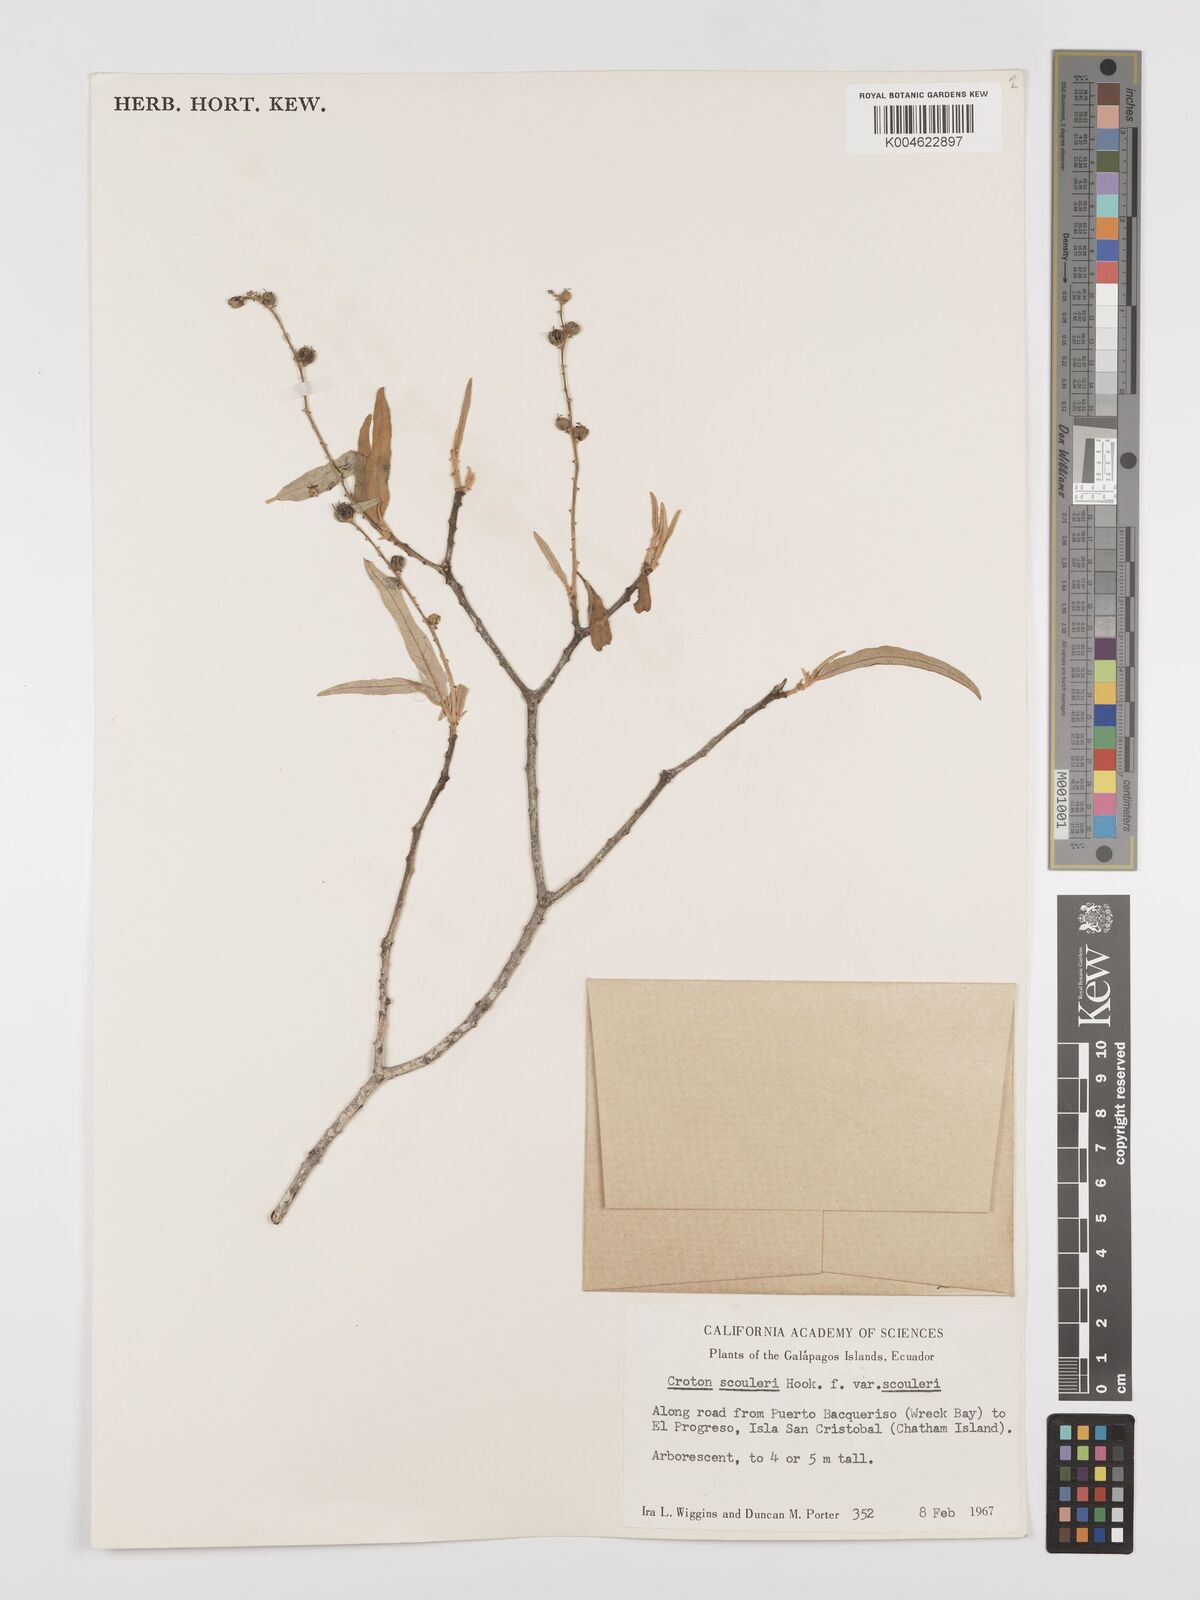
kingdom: Plantae
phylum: Tracheophyta
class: Magnoliopsida
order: Malpighiales
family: Euphorbiaceae
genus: Croton
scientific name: Croton scouleri
